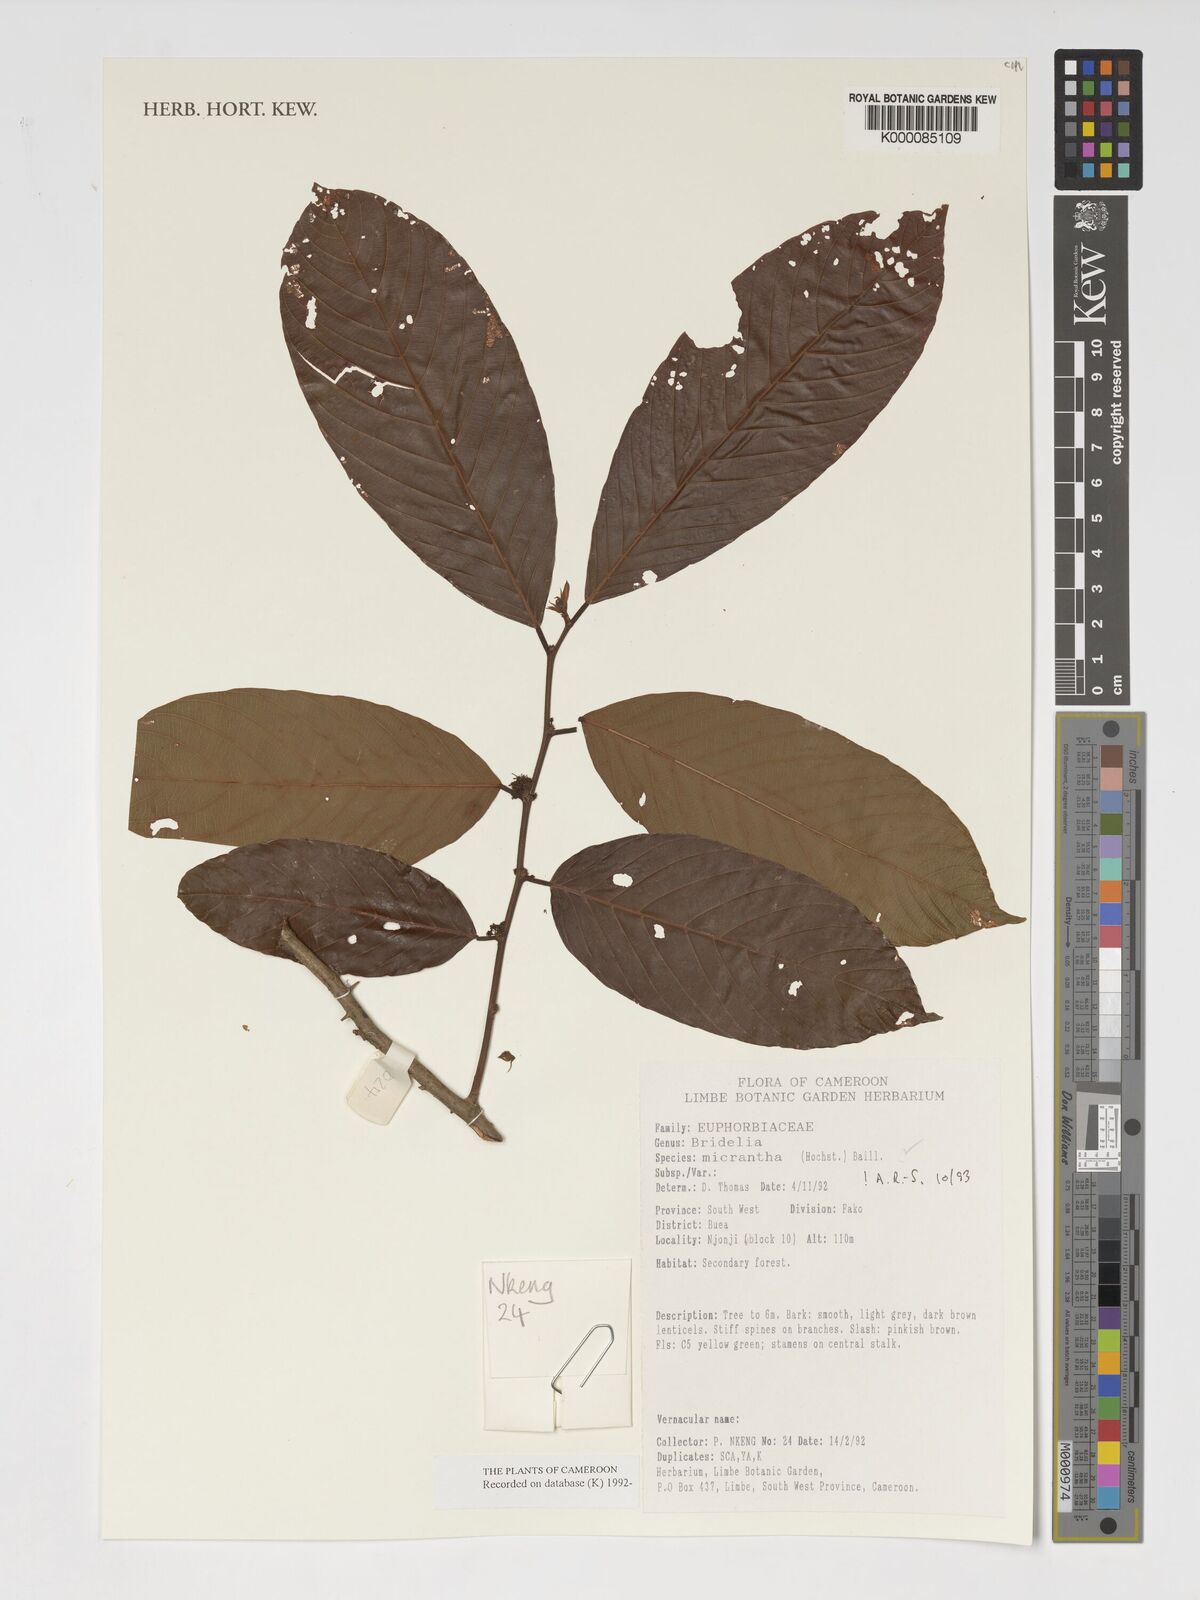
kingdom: Plantae
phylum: Tracheophyta
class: Magnoliopsida
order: Malpighiales
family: Phyllanthaceae
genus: Bridelia
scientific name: Bridelia micrantha
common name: Bridelia
